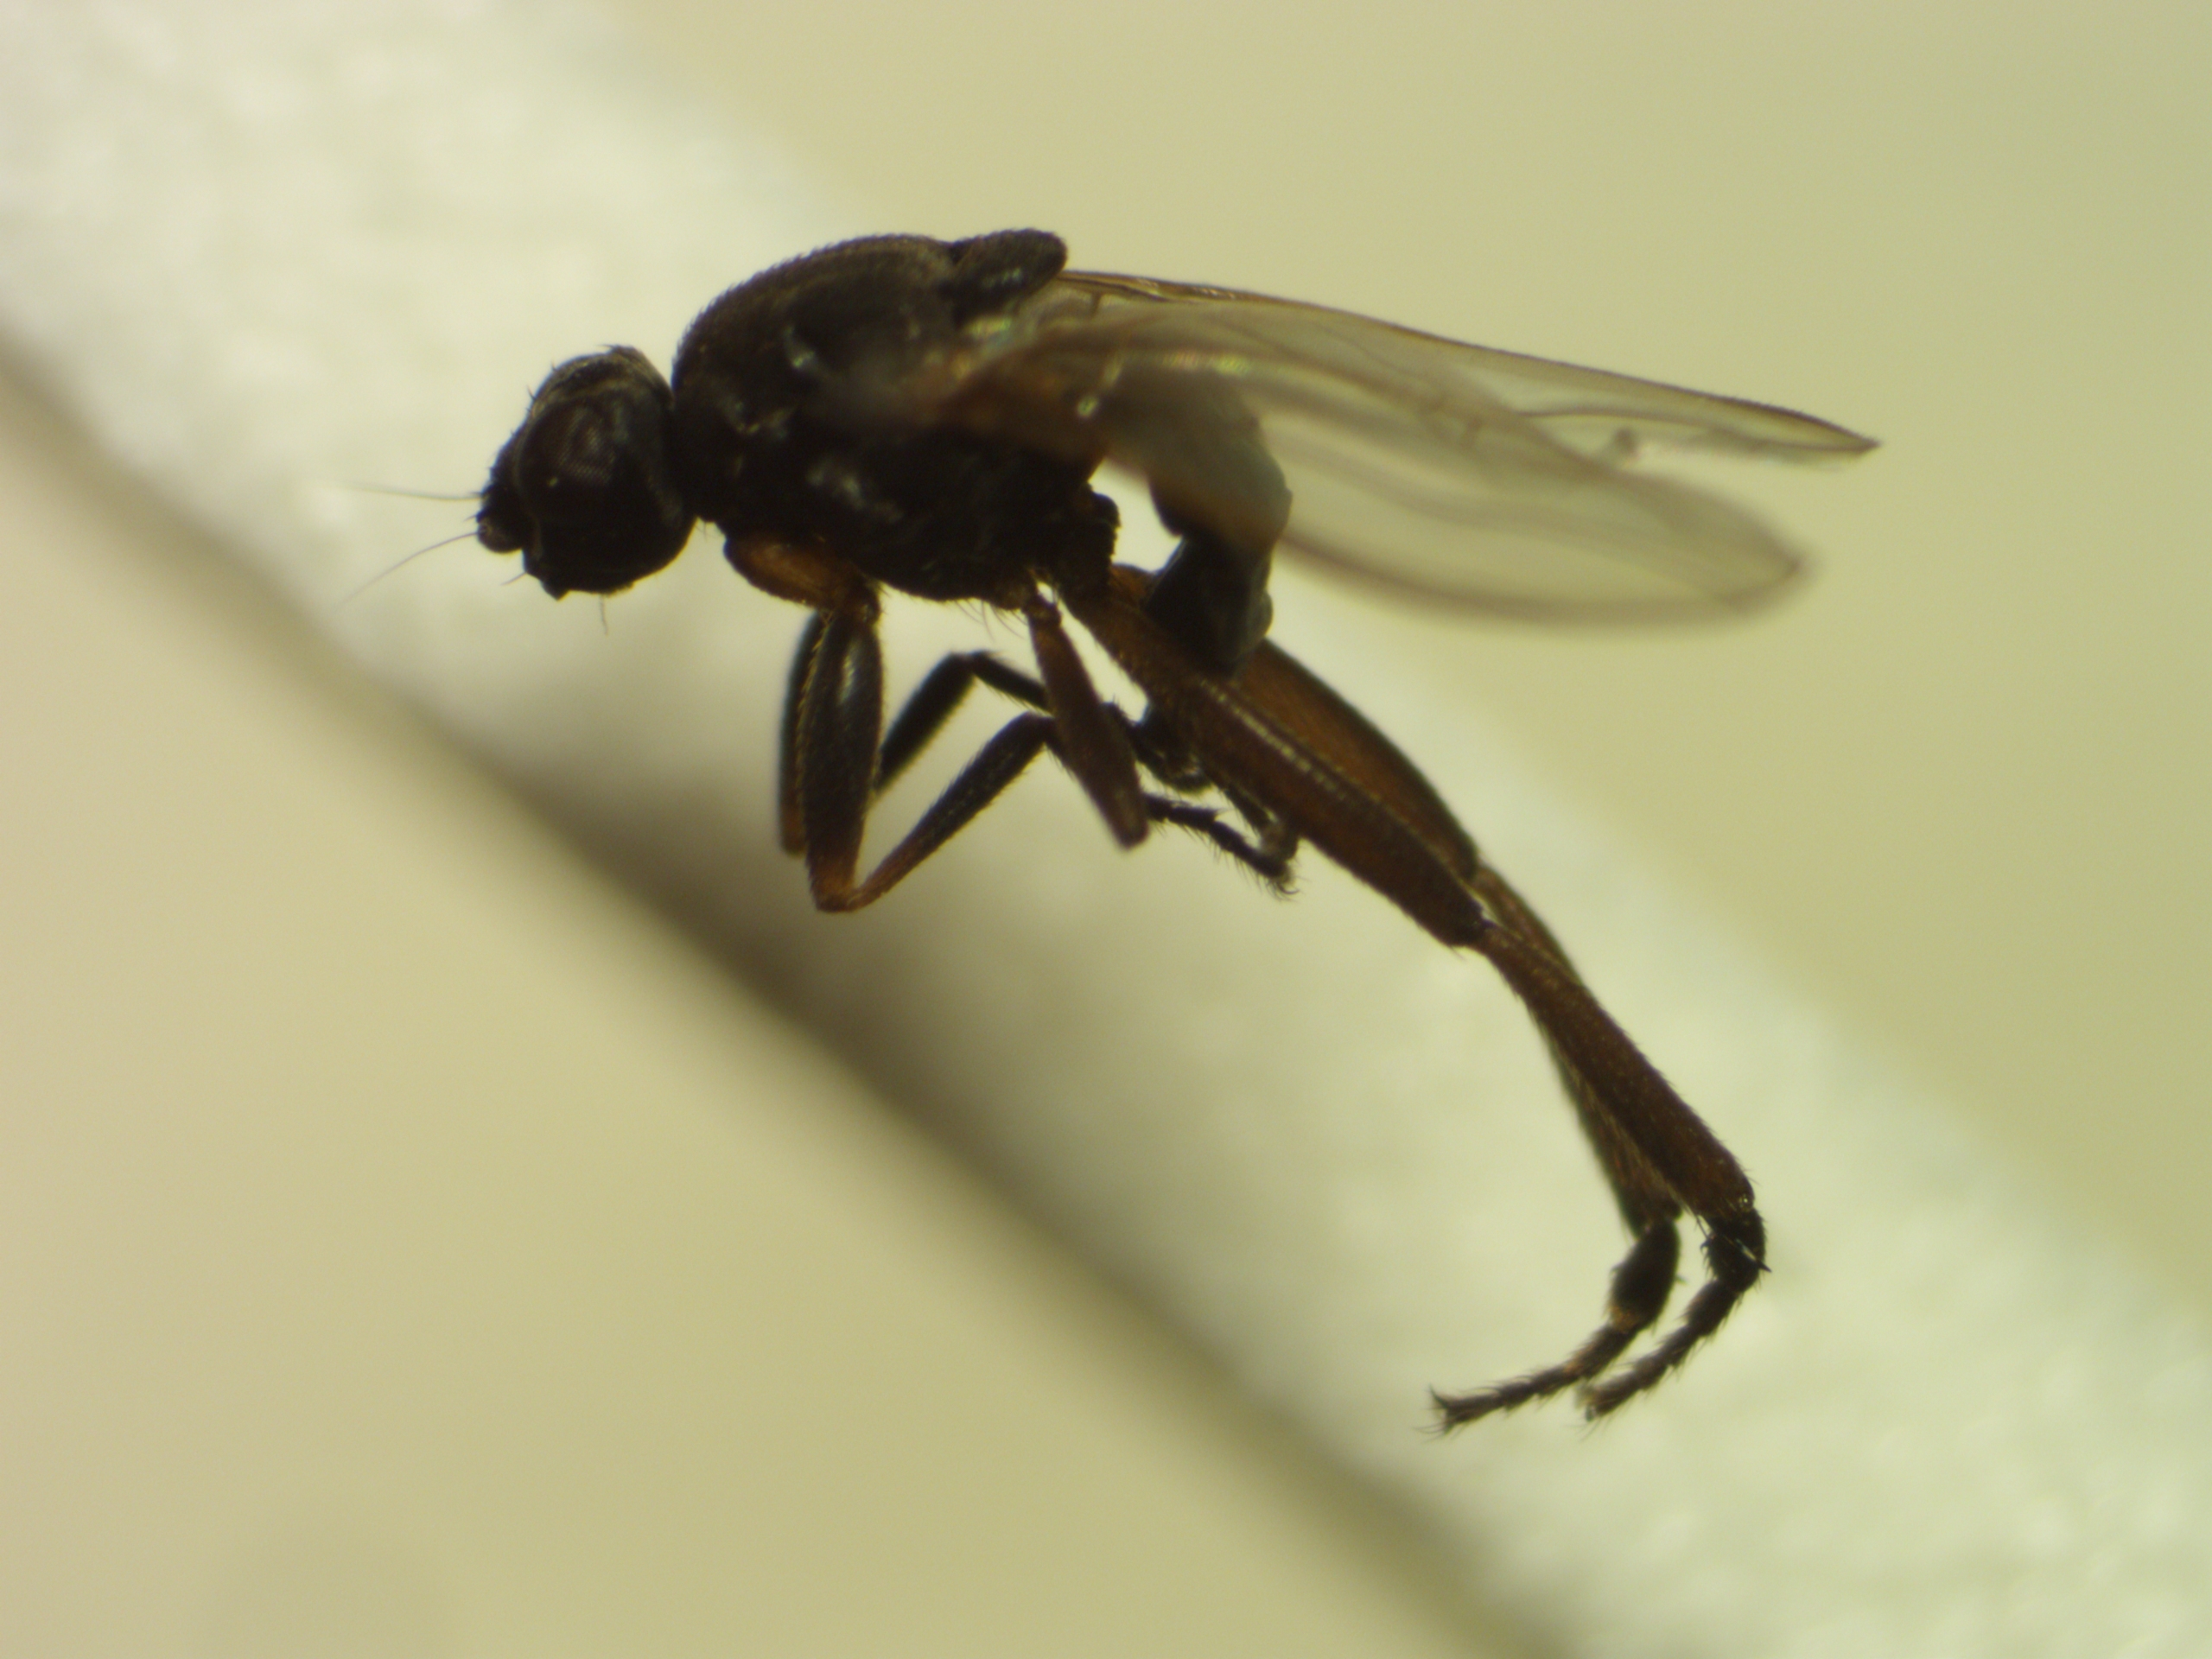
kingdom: Animalia
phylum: Arthropoda
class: Insecta
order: Diptera
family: Sphaeroceridae
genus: Sphaerocera
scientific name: Sphaerocera curvipes
